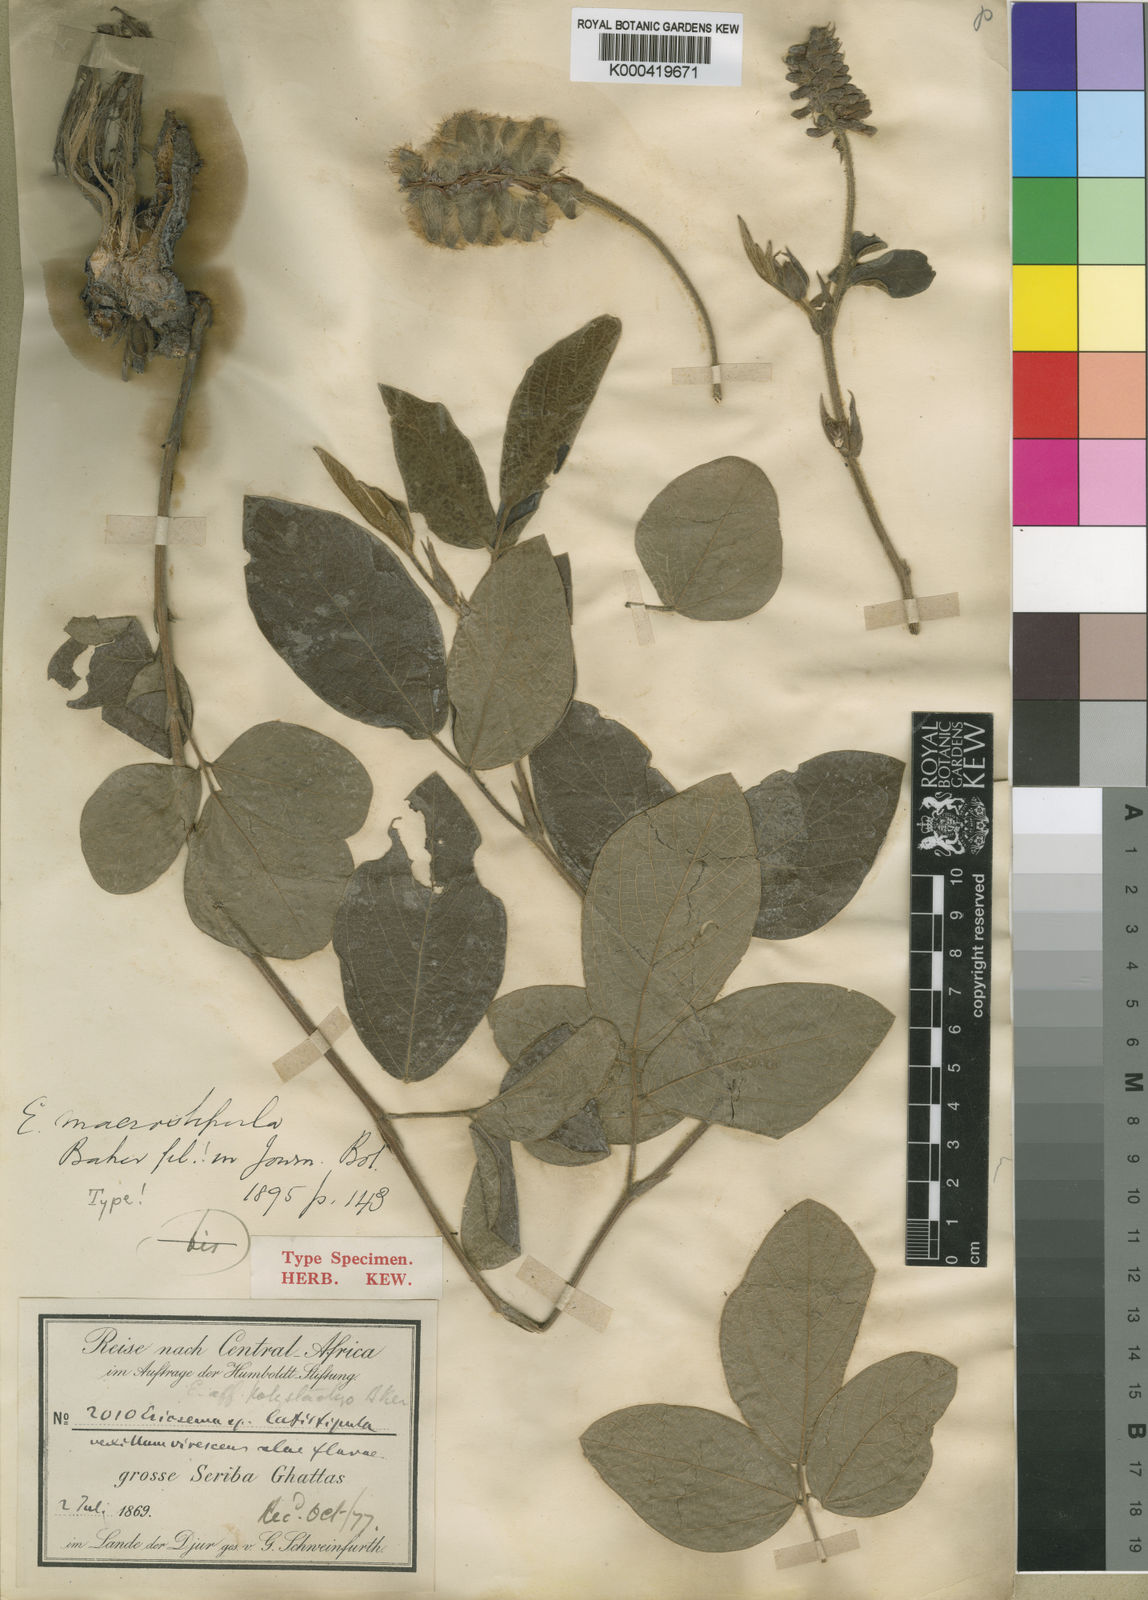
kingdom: Plantae
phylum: Tracheophyta
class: Magnoliopsida
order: Fabales
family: Fabaceae
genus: Eriosema
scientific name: Eriosema macrostipulum
